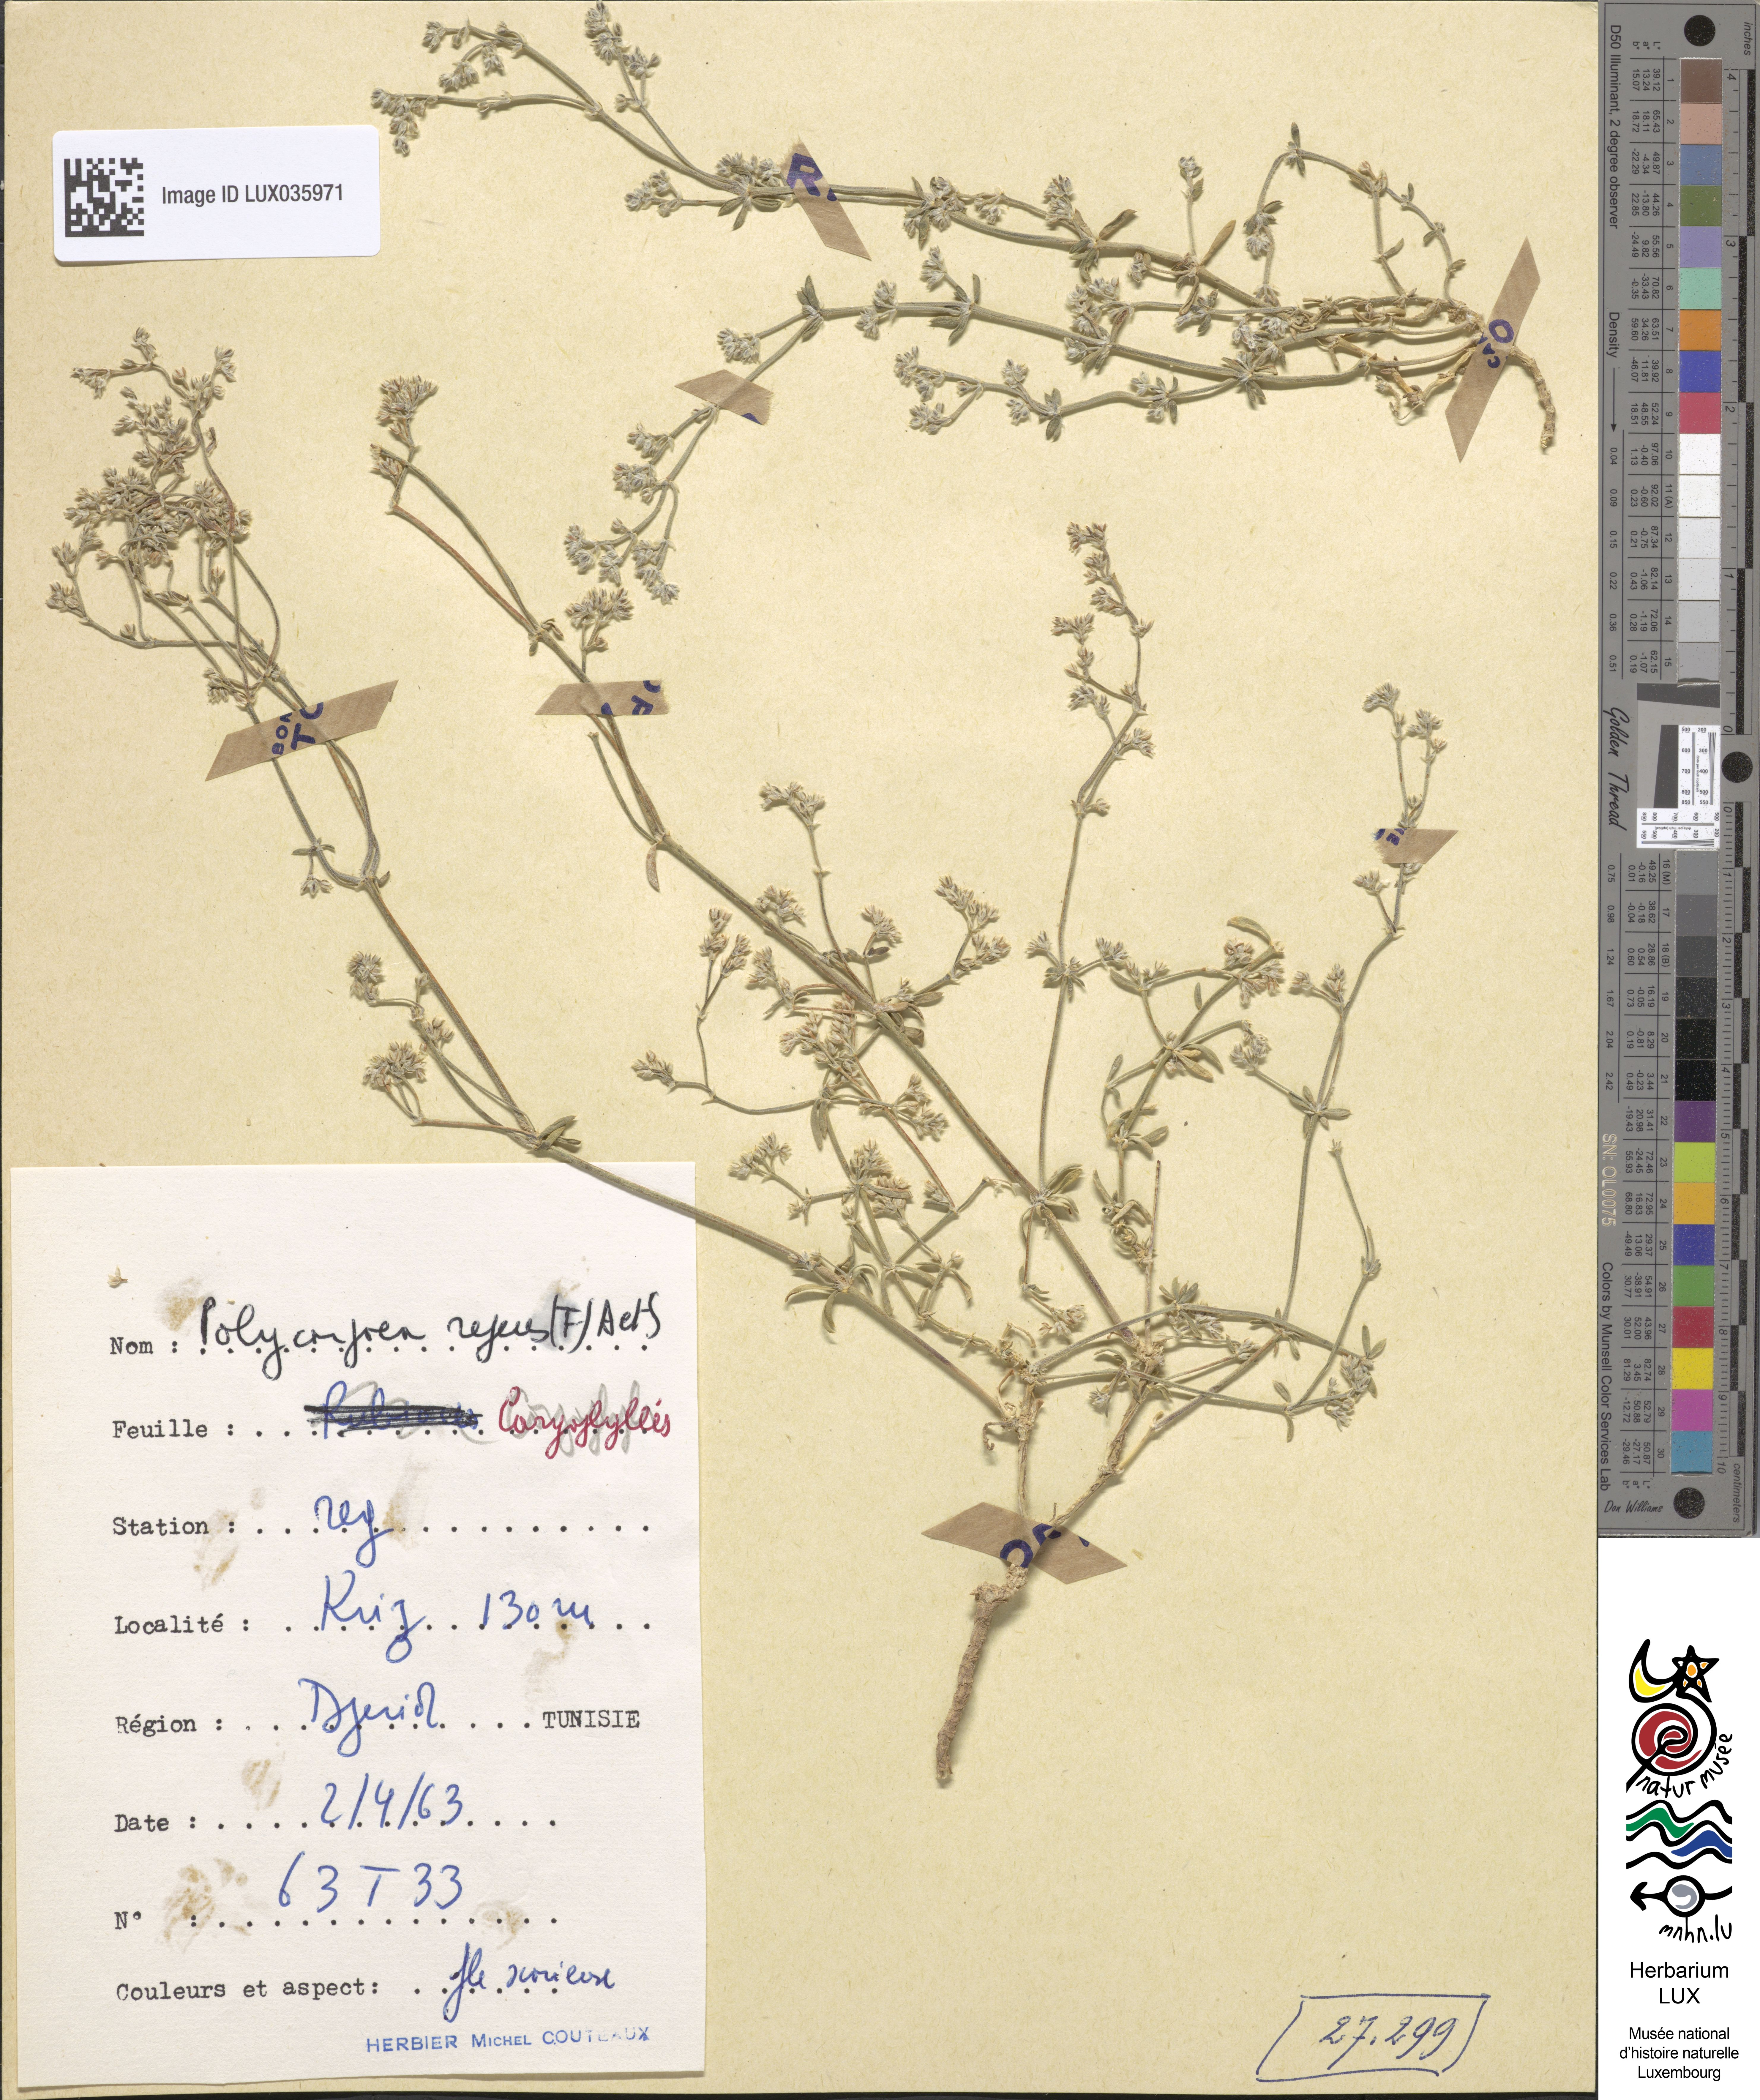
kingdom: Plantae
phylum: Tracheophyta
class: Magnoliopsida
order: Caryophyllales
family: Caryophyllaceae
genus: Polycarpaea
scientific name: Polycarpaea repens
